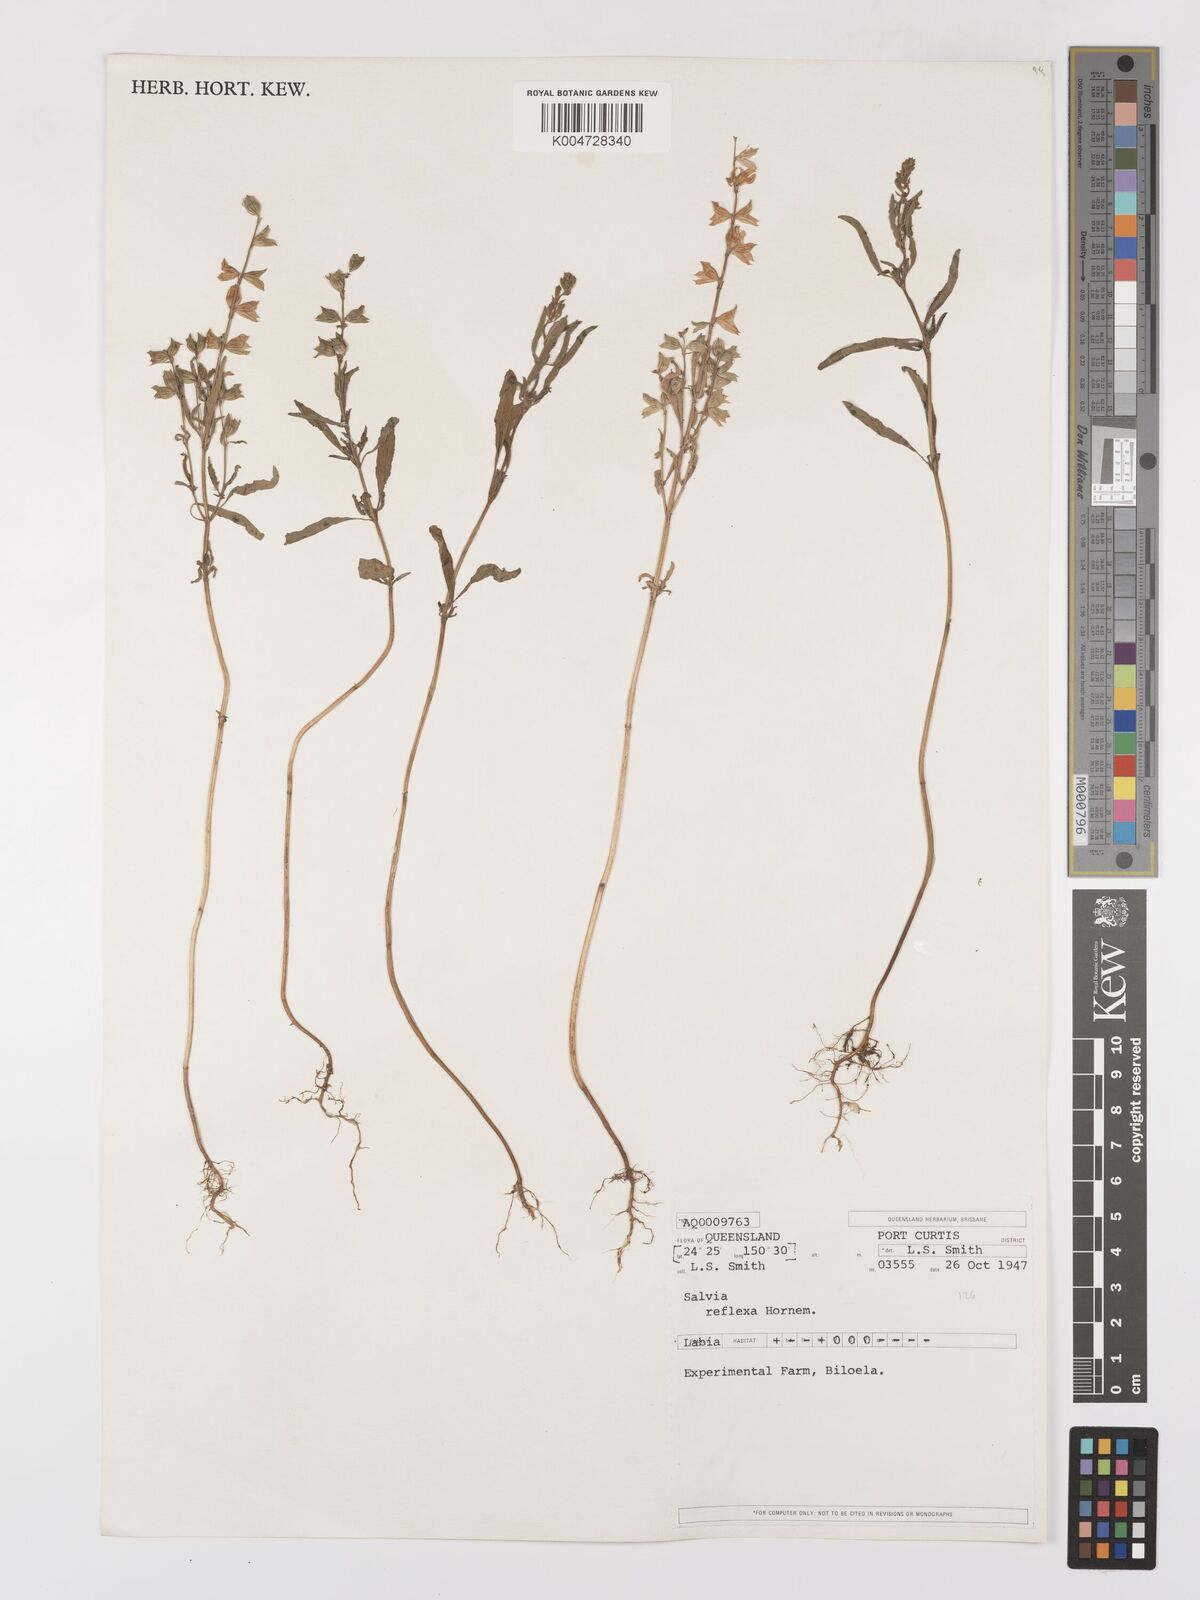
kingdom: Plantae
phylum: Tracheophyta
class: Magnoliopsida
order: Lamiales
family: Lamiaceae
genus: Salvia
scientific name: Salvia reflexa
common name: Mintweed
